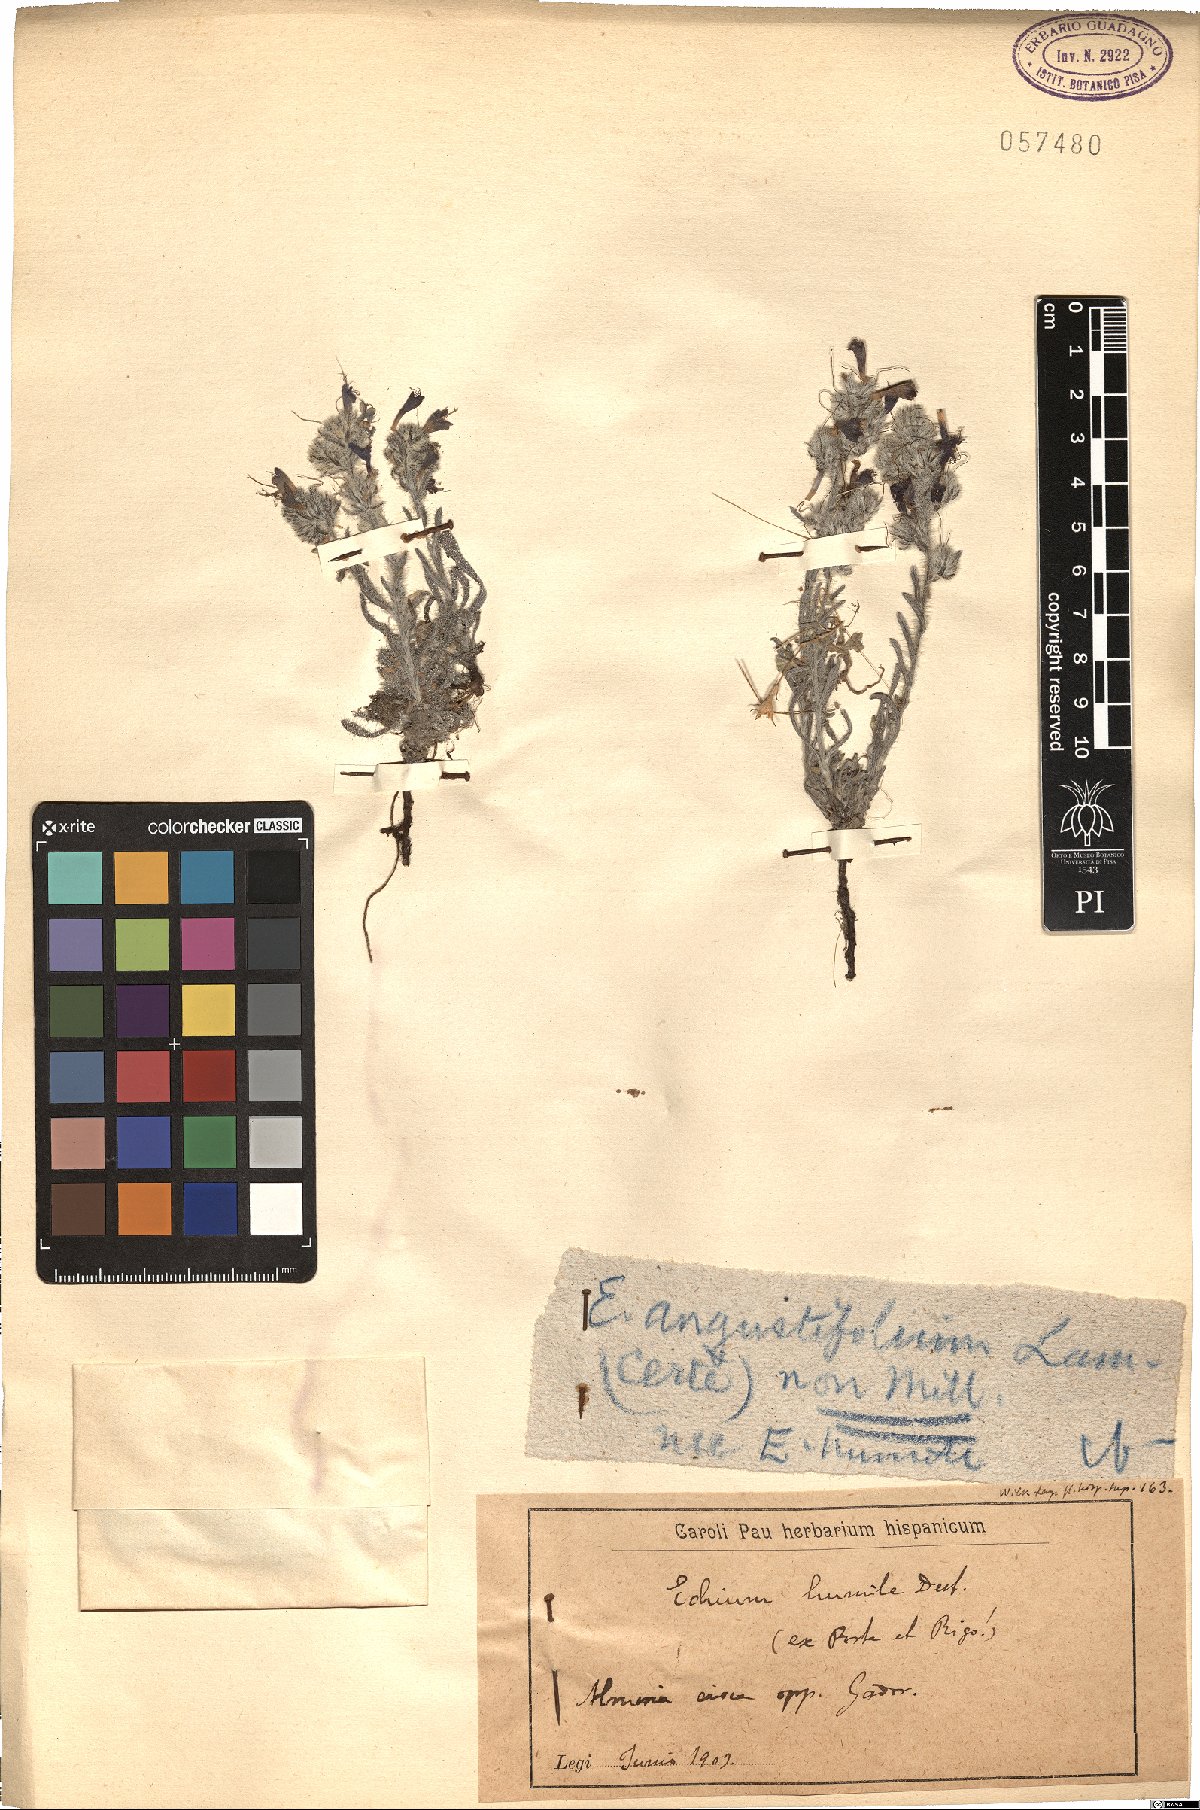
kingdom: Plantae
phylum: Tracheophyta
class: Magnoliopsida
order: Boraginales
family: Boraginaceae
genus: Echium
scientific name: Echium humile
